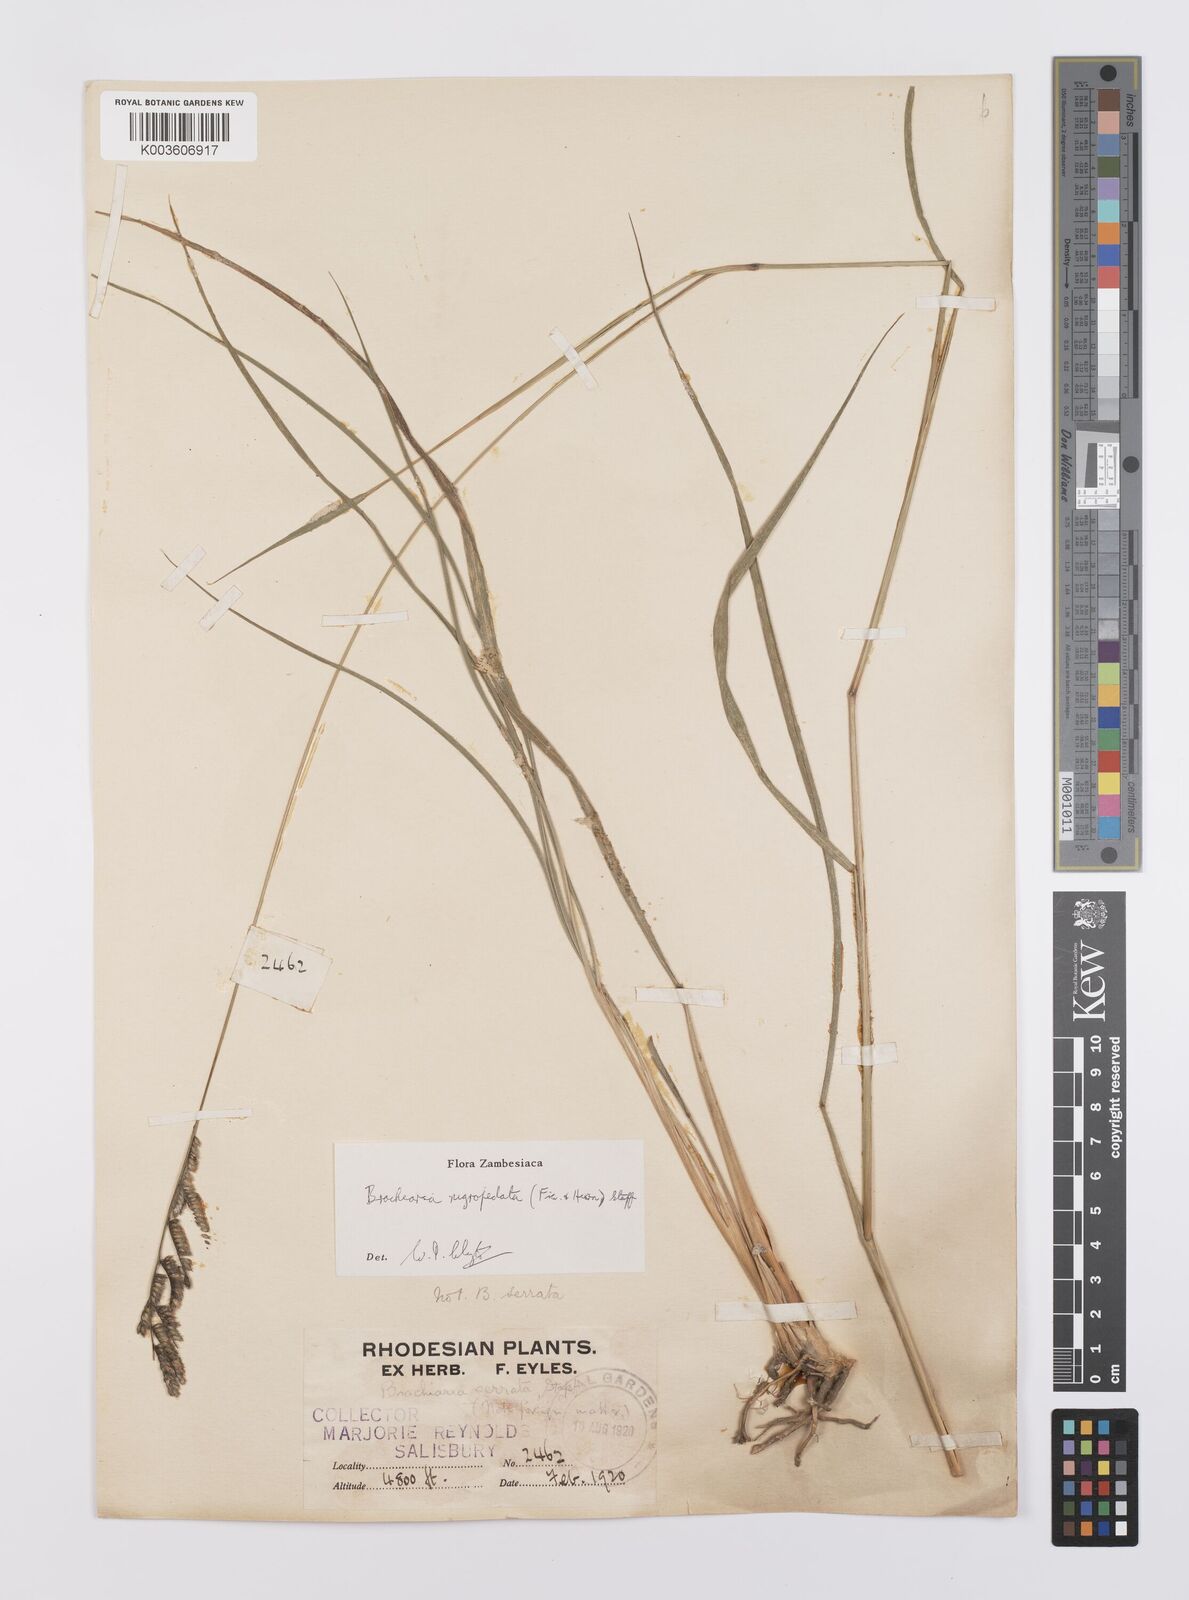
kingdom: Plantae
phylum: Tracheophyta
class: Liliopsida
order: Poales
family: Poaceae
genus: Urochloa
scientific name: Urochloa nigropedata
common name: Spotted signal grass
